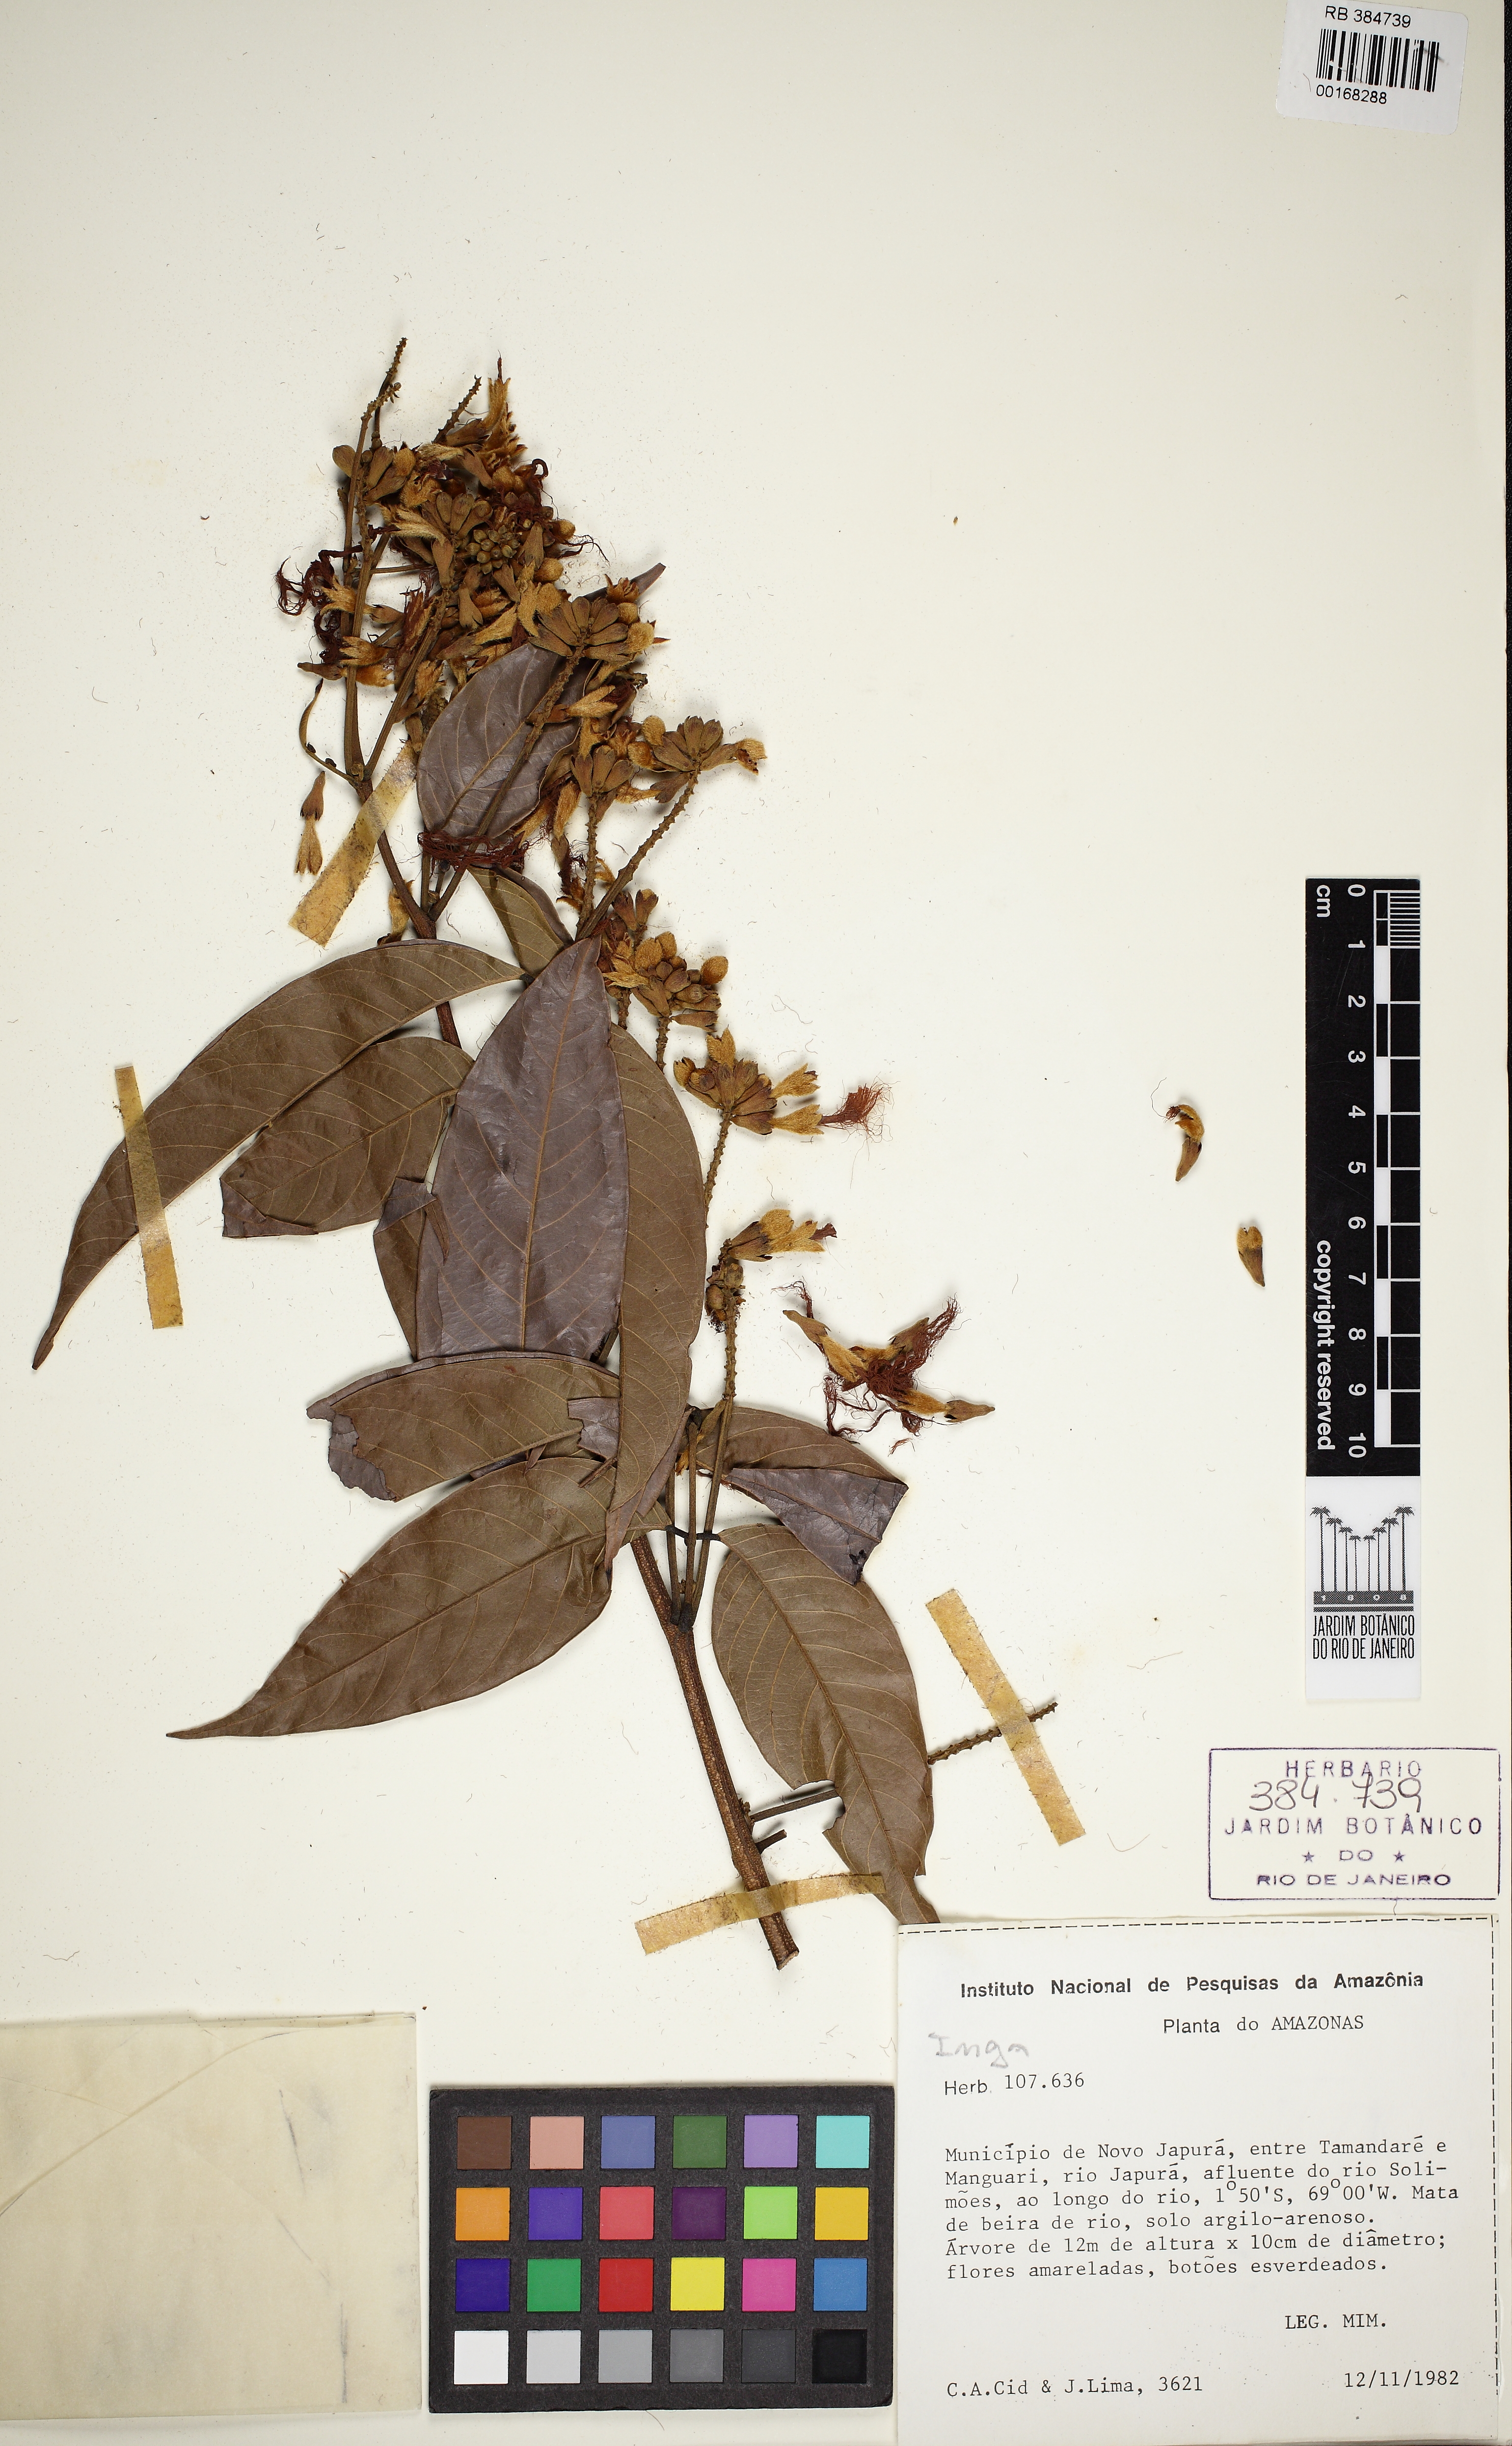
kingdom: Plantae
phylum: Tracheophyta
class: Magnoliopsida
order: Fabales
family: Fabaceae
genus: Inga
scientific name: Inga longifoliola
